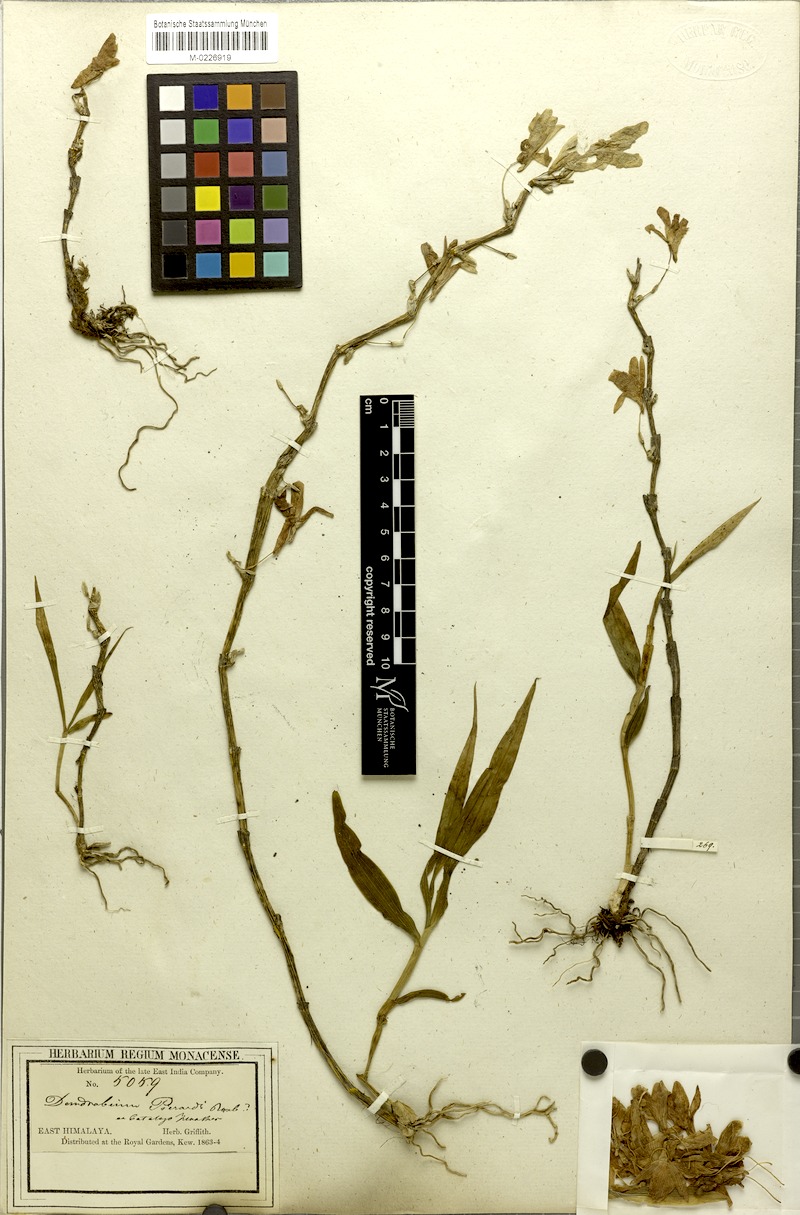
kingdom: Plantae
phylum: Tracheophyta
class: Liliopsida
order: Asparagales
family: Orchidaceae
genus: Dendrobium
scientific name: Dendrobium aphyllum
